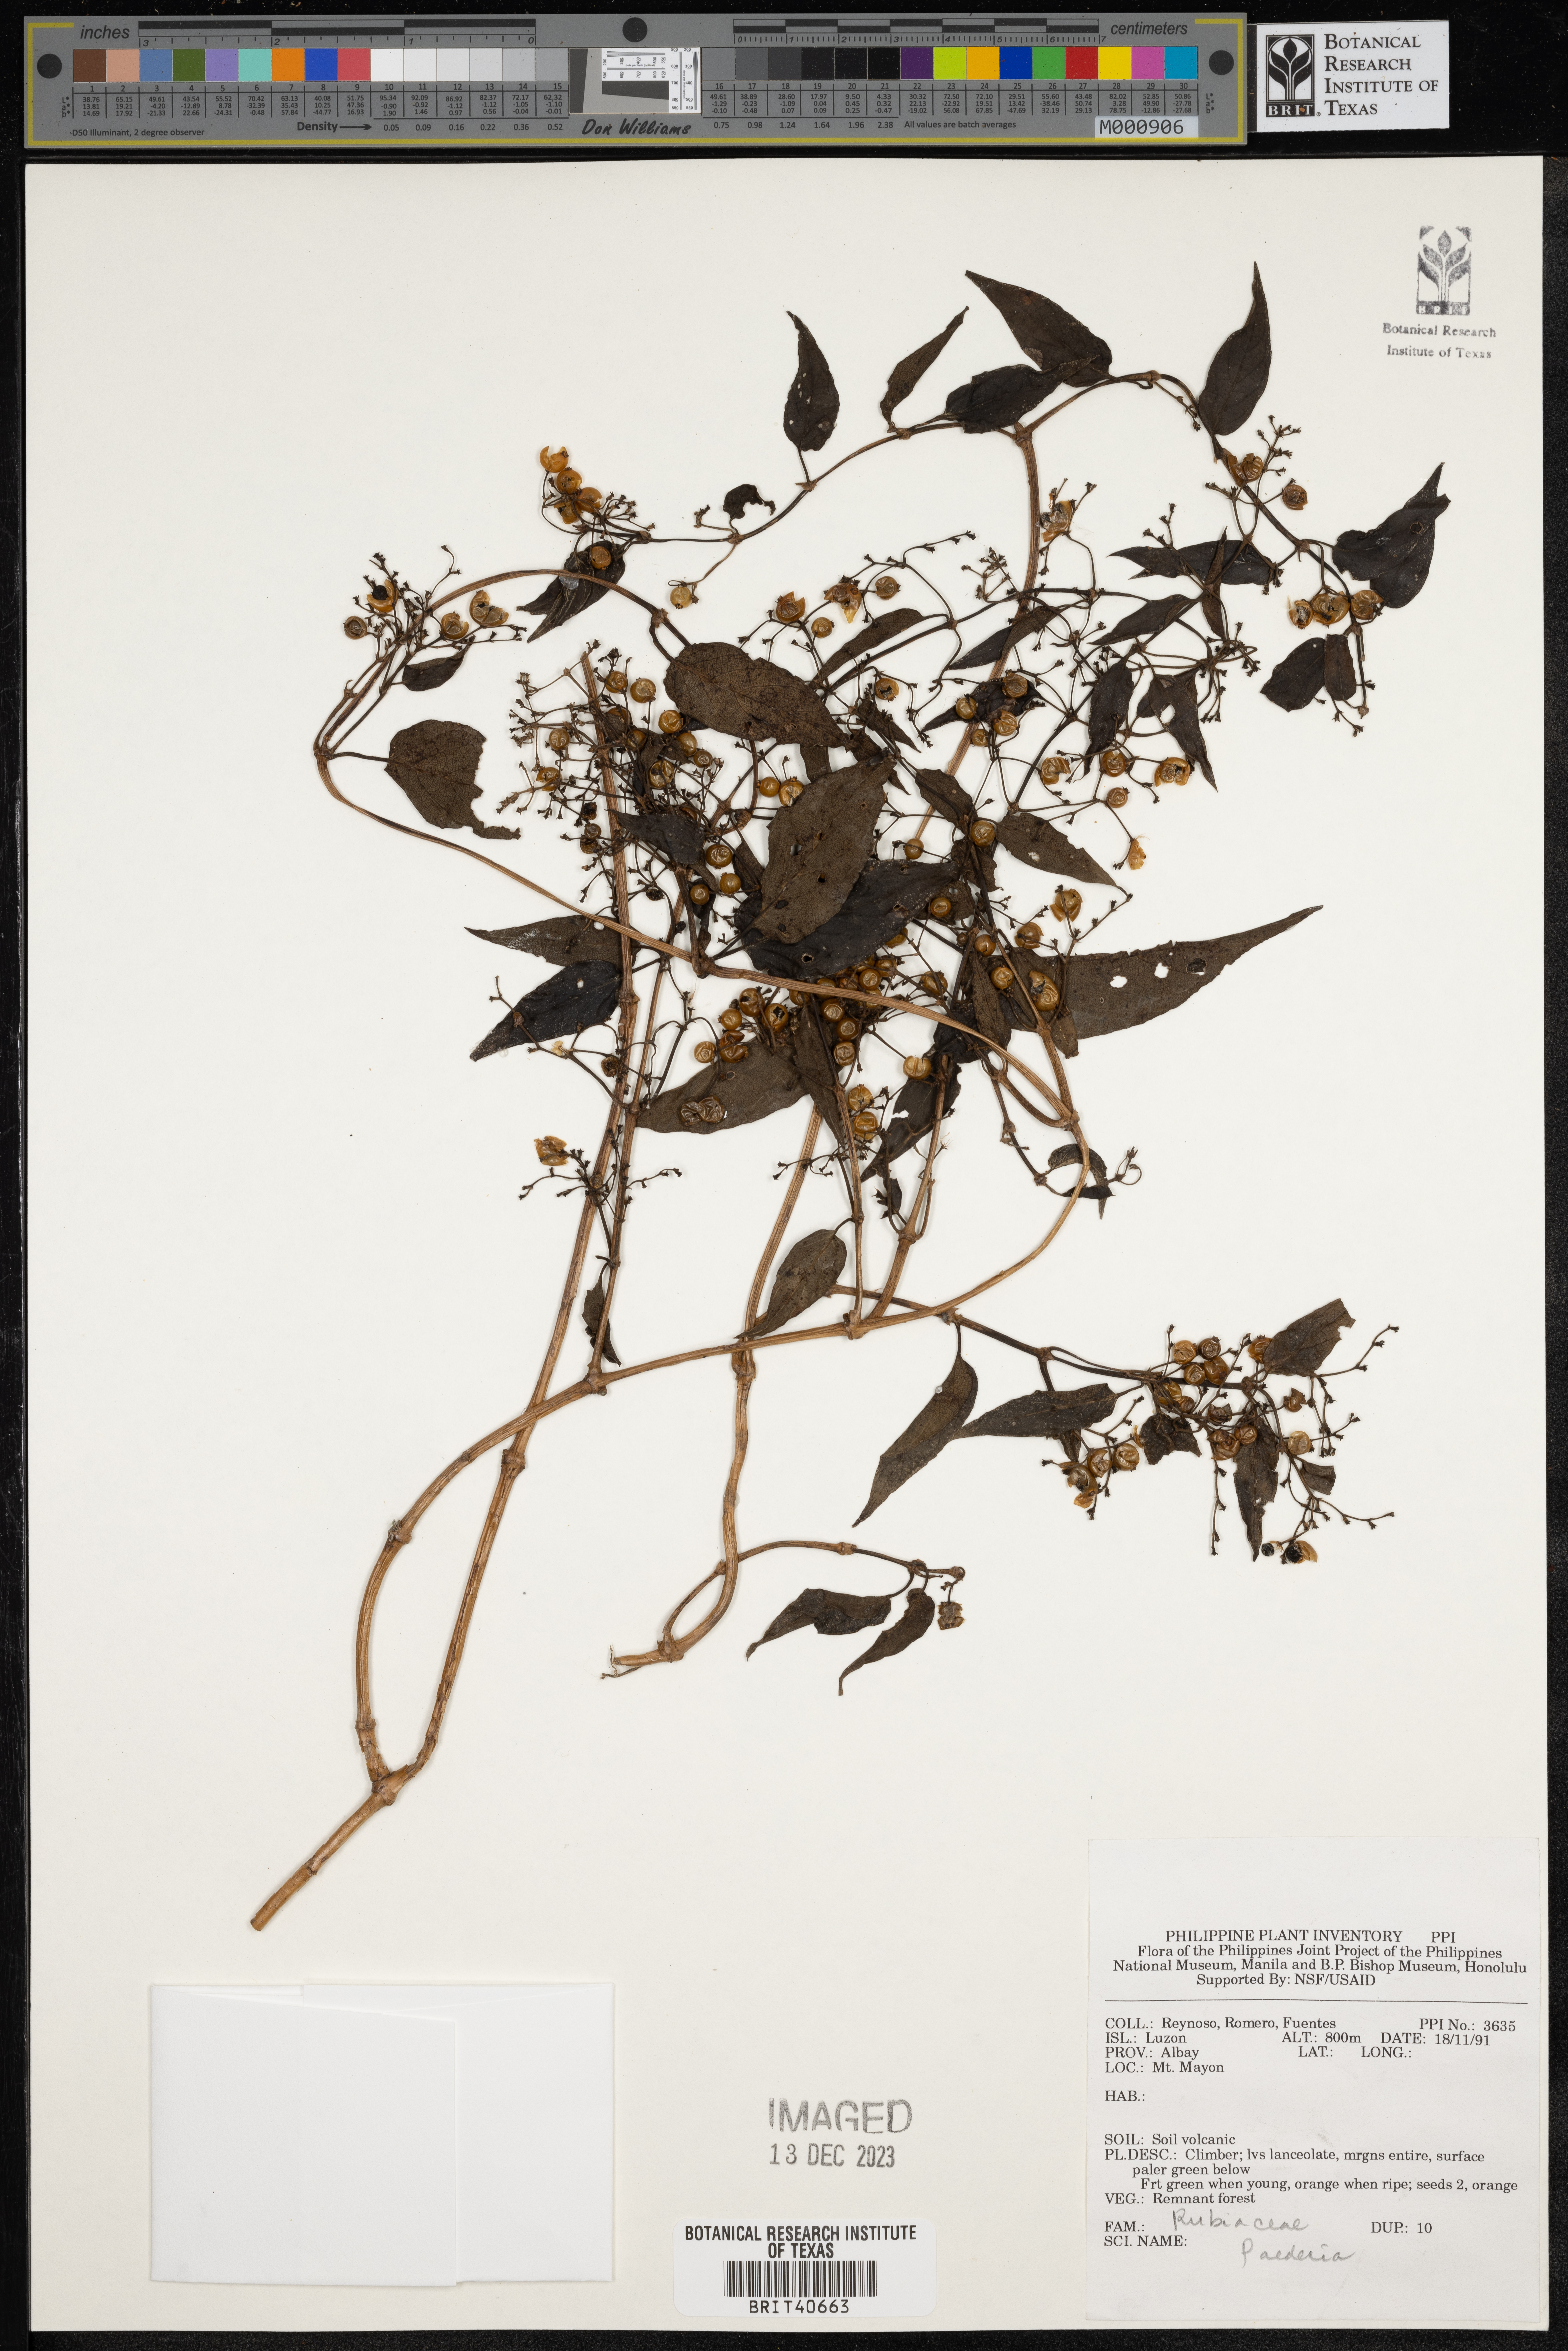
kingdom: Plantae
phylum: Tracheophyta
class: Magnoliopsida
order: Gentianales
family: Rubiaceae
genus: Paederia
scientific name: Paederia
